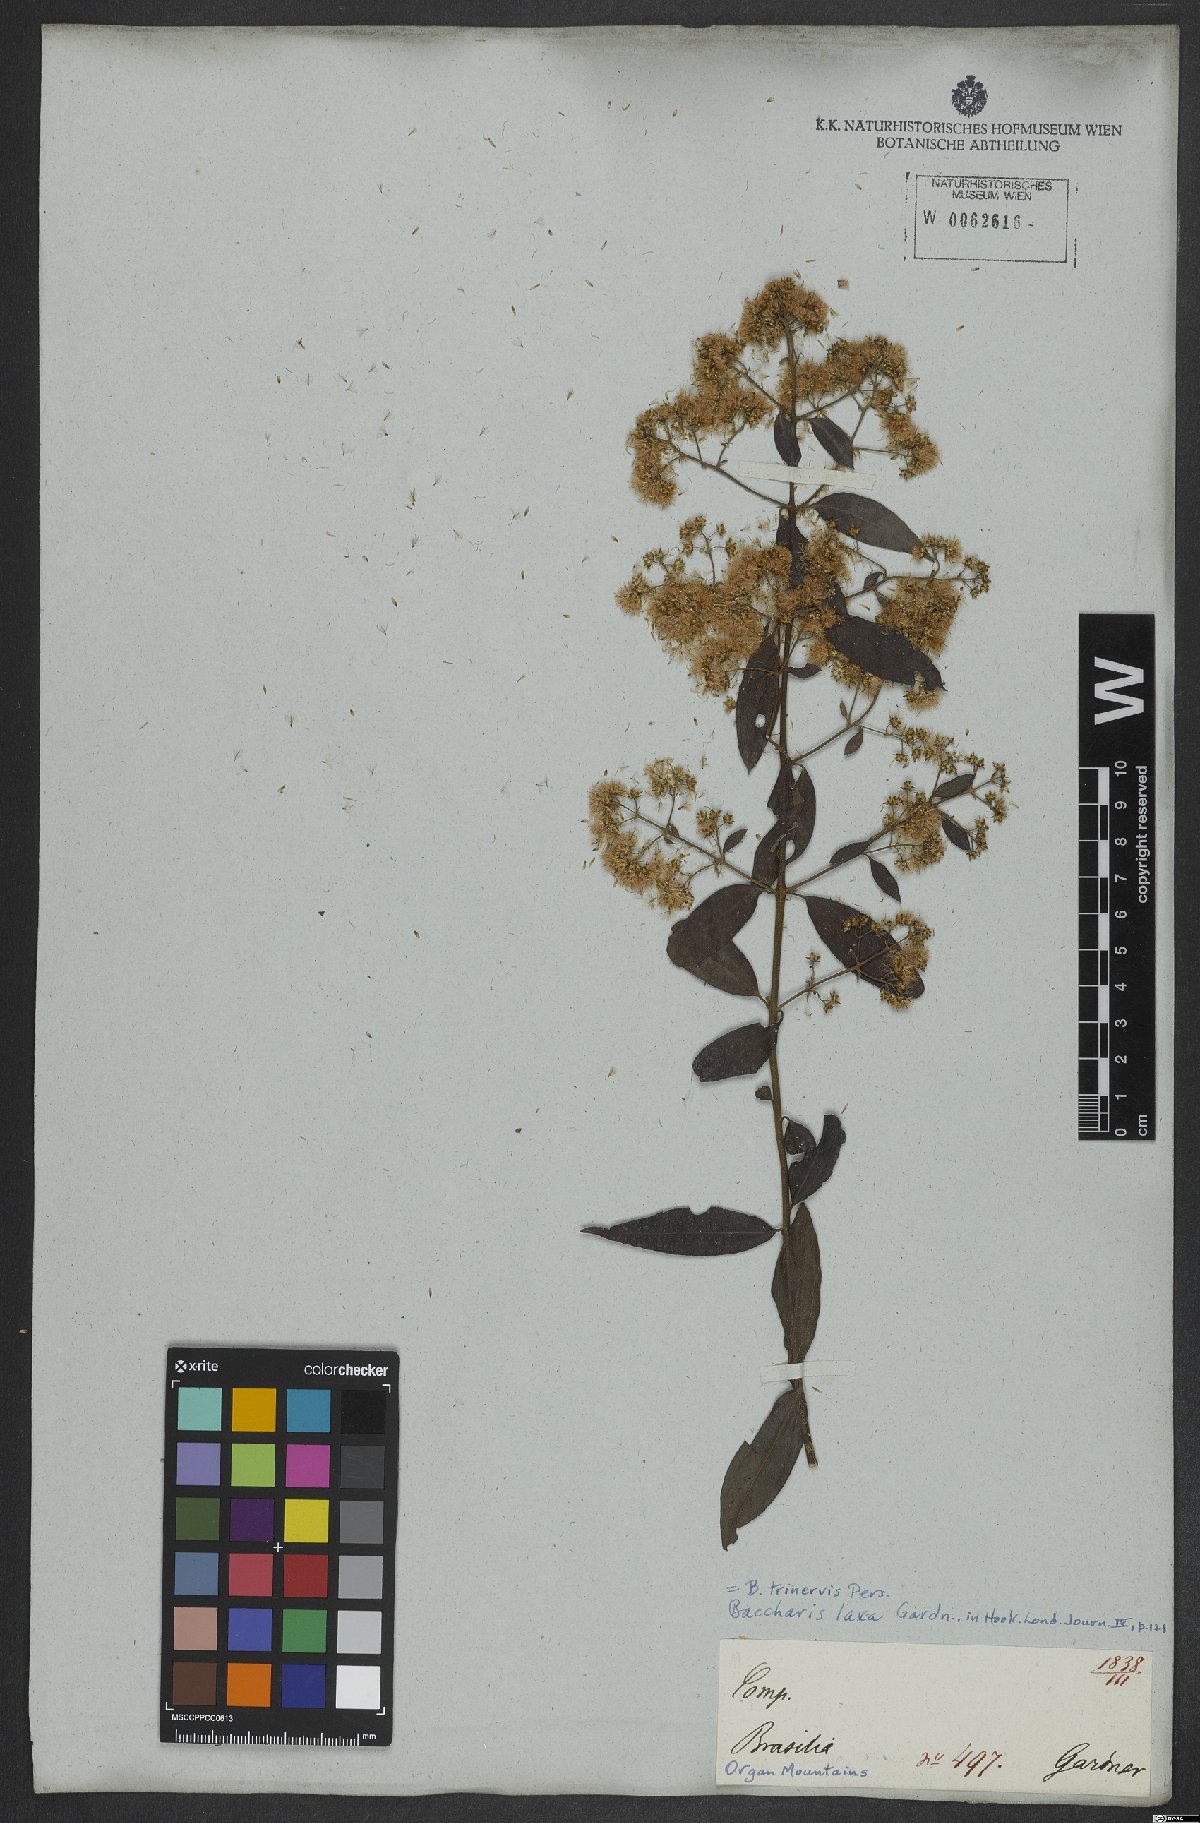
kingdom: Plantae
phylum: Tracheophyta
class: Magnoliopsida
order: Asterales
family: Asteraceae
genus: Baccharis
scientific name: Baccharis trinervis
